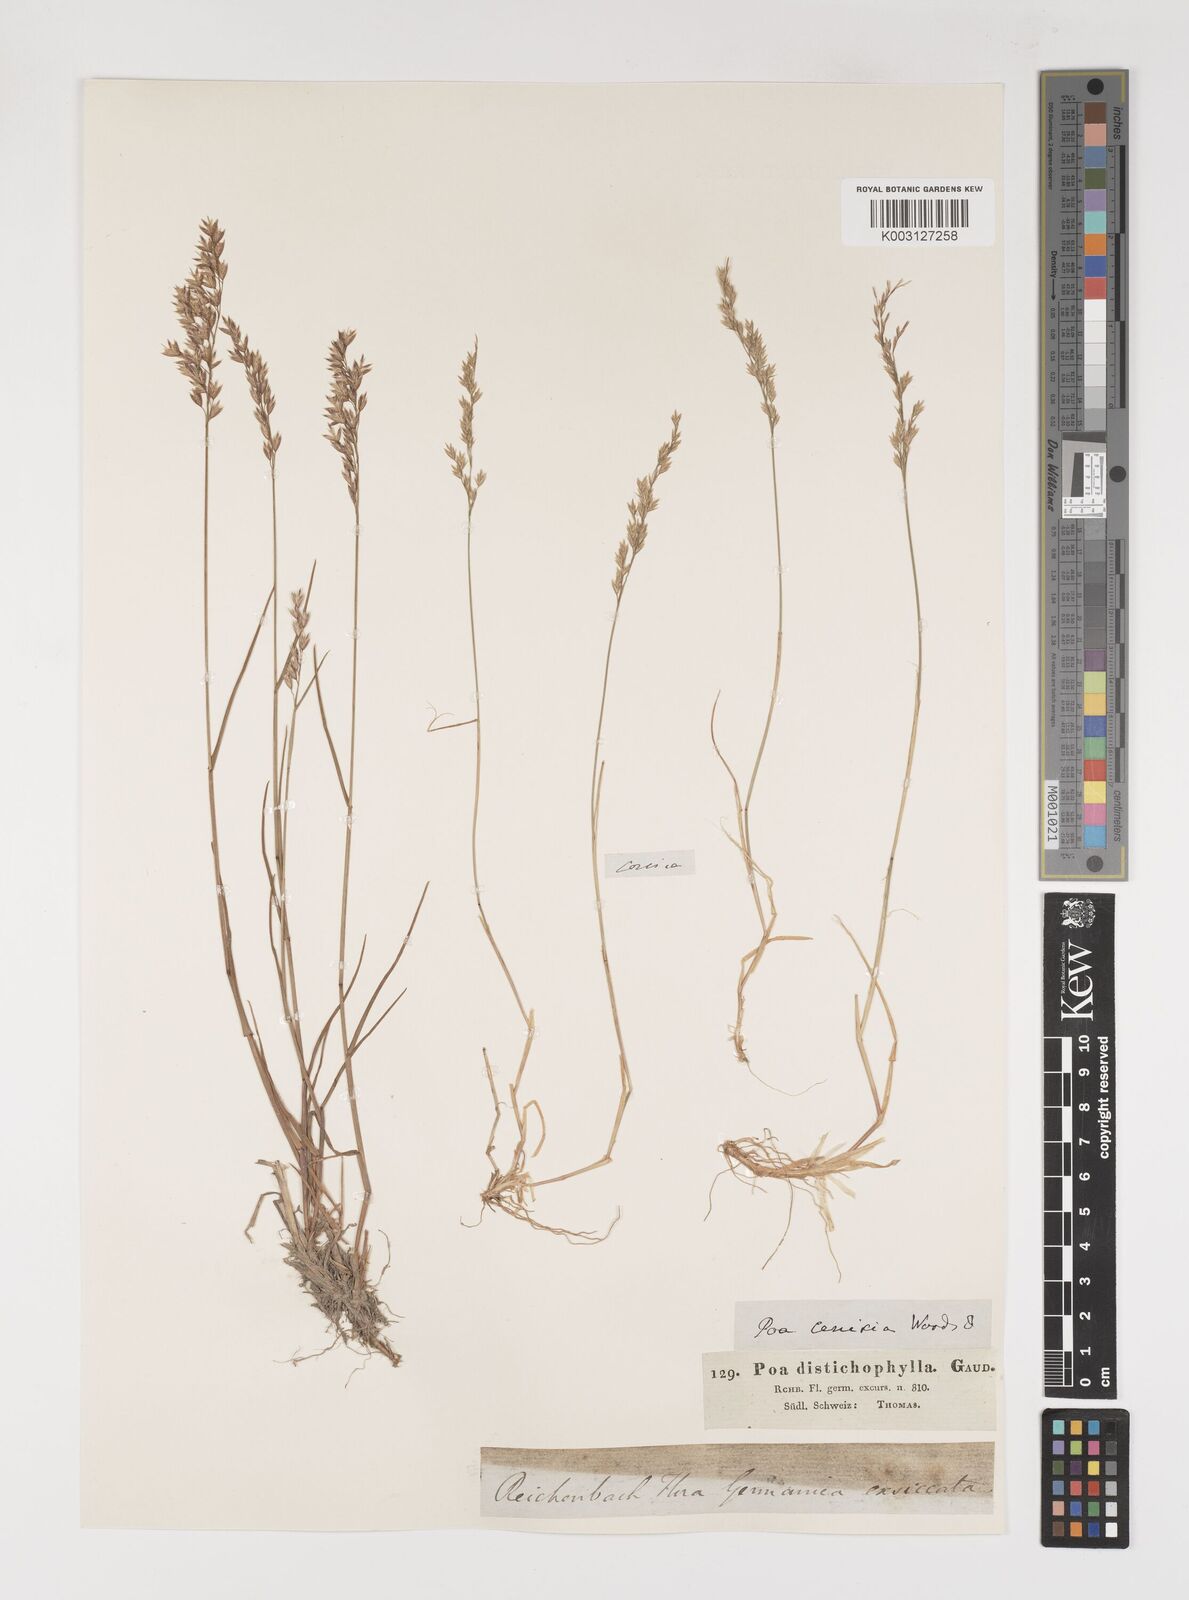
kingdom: Plantae
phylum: Tracheophyta
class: Liliopsida
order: Poales
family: Poaceae
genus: Poa
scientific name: Poa alpina
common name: Alpine bluegrass
